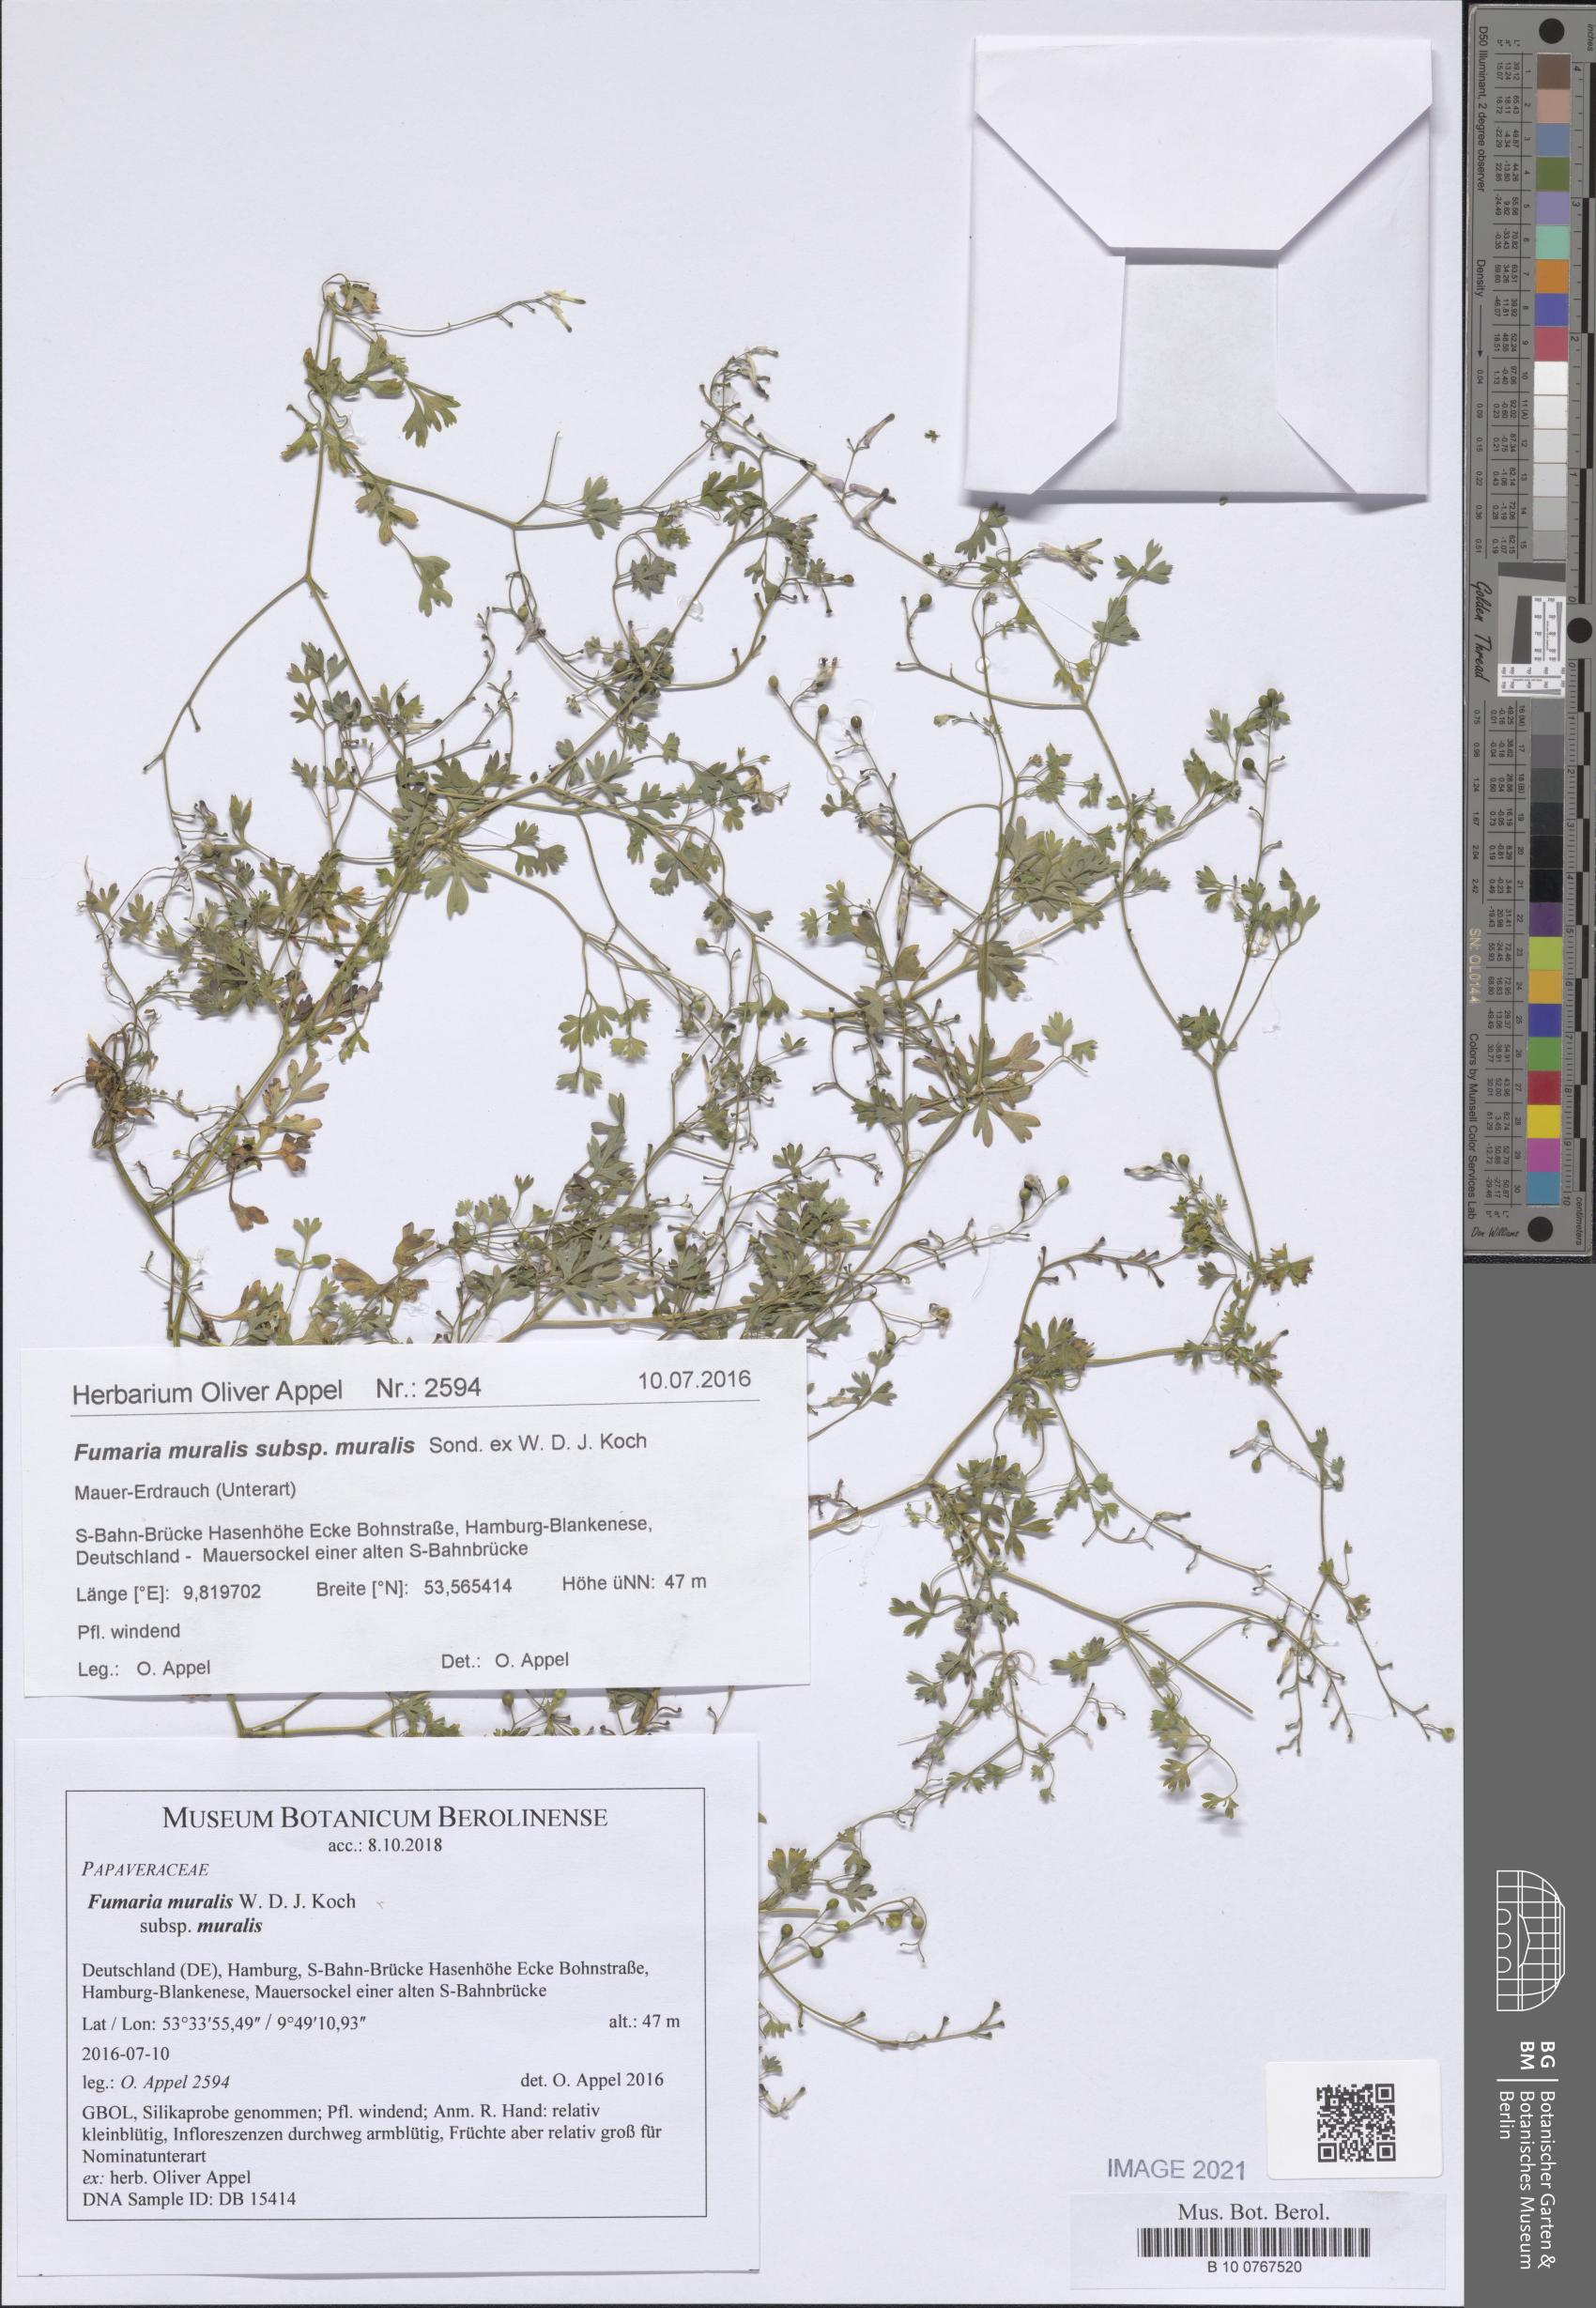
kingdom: Plantae
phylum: Tracheophyta
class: Magnoliopsida
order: Ranunculales
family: Papaveraceae
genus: Fumaria
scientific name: Fumaria muralis
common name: Common ramping-fumitory
